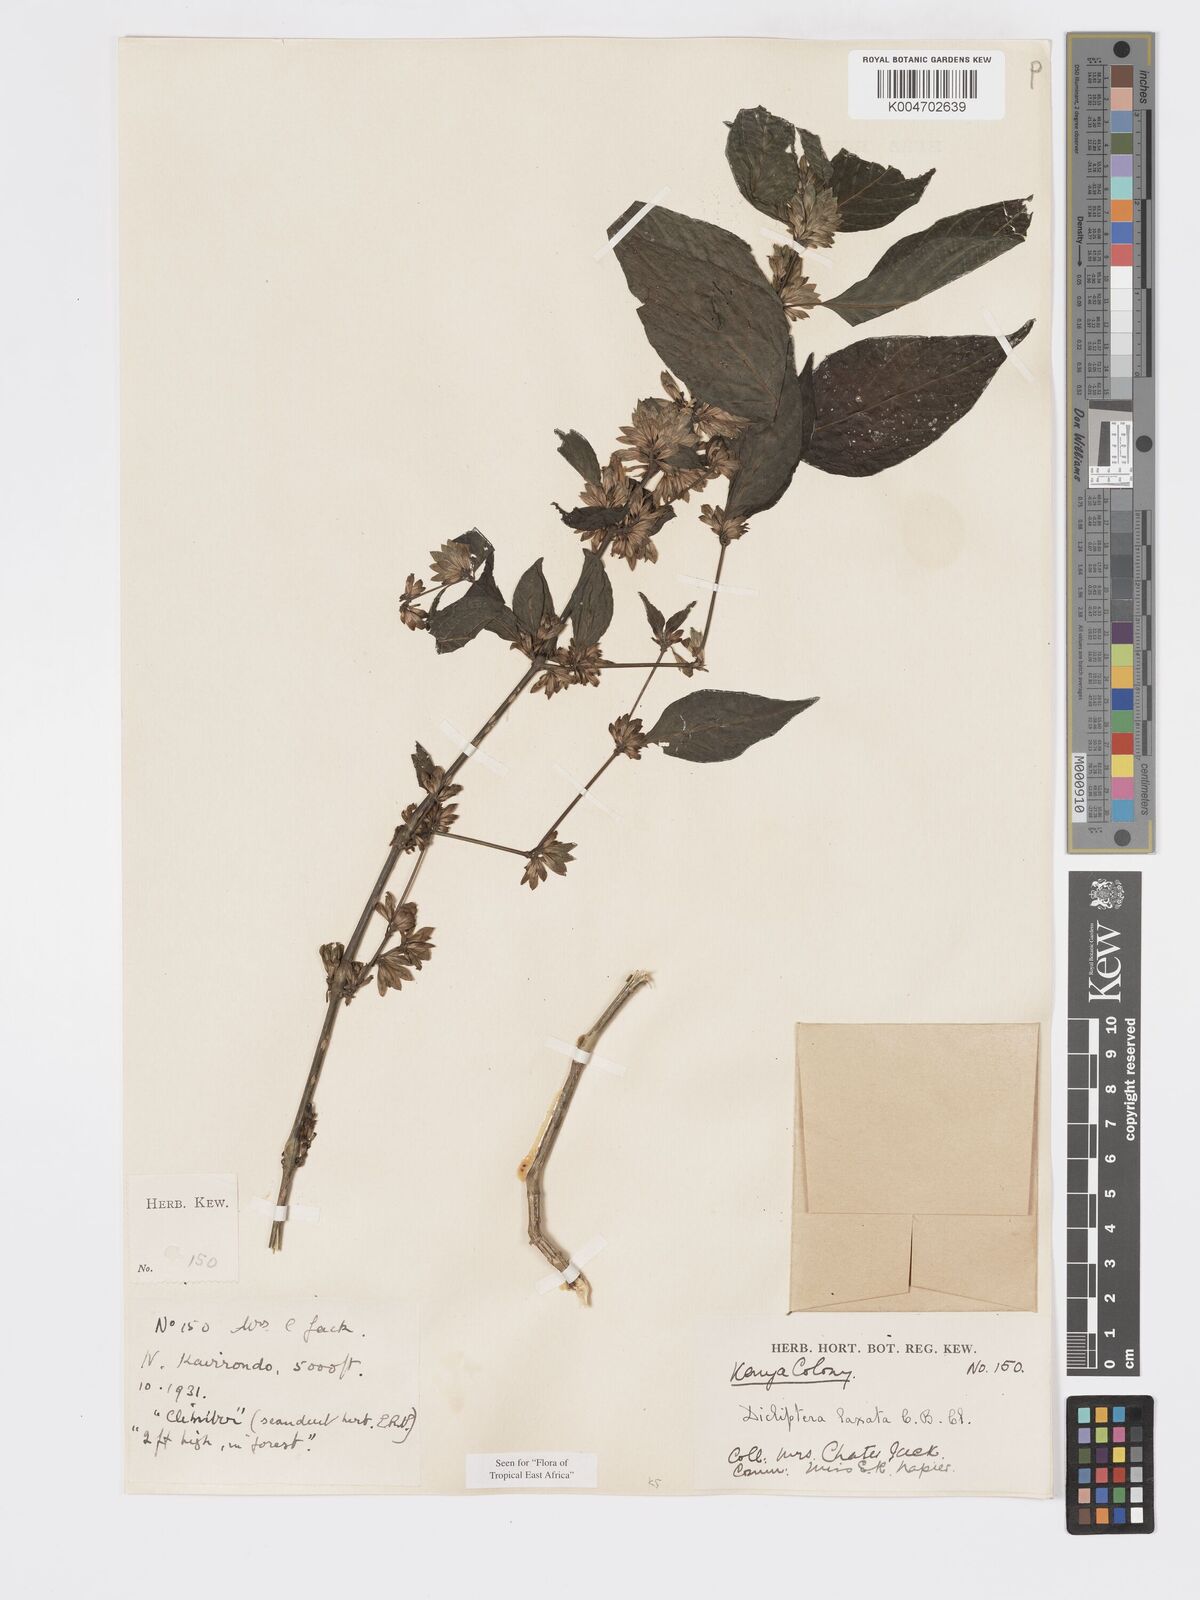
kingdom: Plantae
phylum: Tracheophyta
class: Magnoliopsida
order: Lamiales
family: Acanthaceae
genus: Dicliptera
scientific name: Dicliptera laxata
